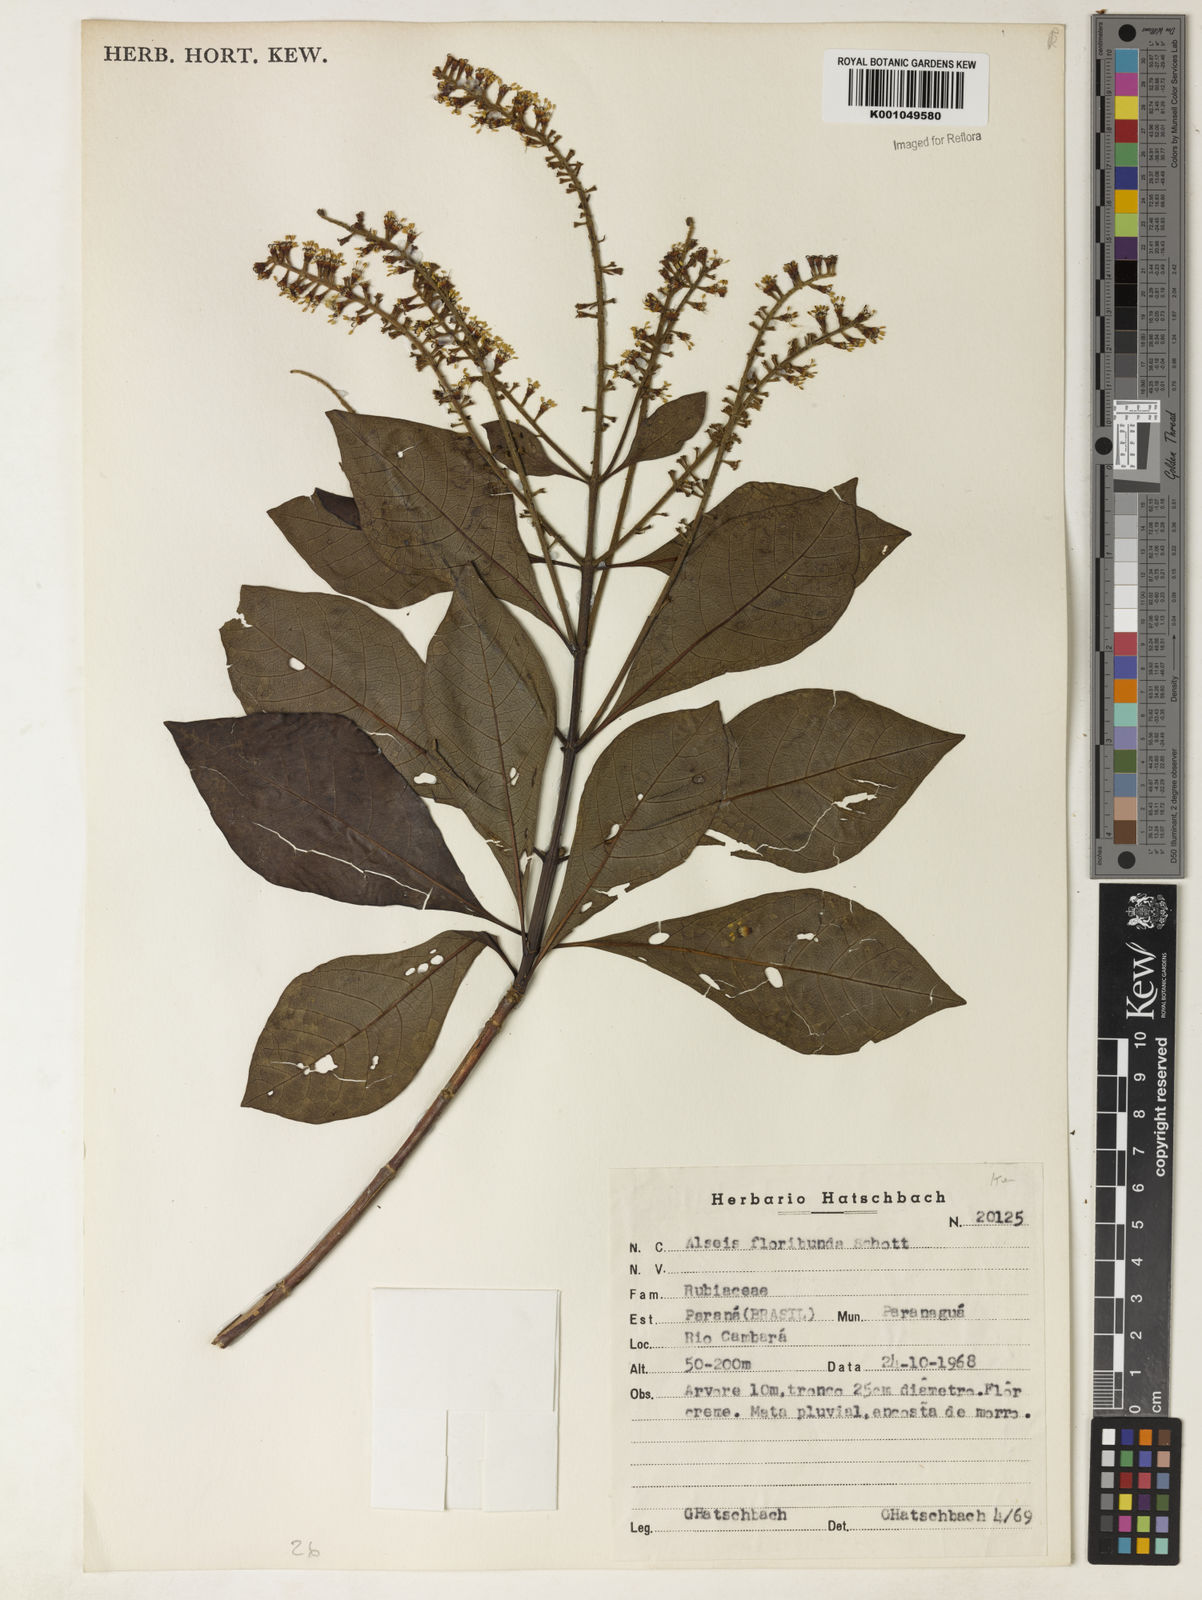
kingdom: Plantae
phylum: Tracheophyta
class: Magnoliopsida
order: Gentianales
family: Rubiaceae
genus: Alseis
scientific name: Alseis floribunda
